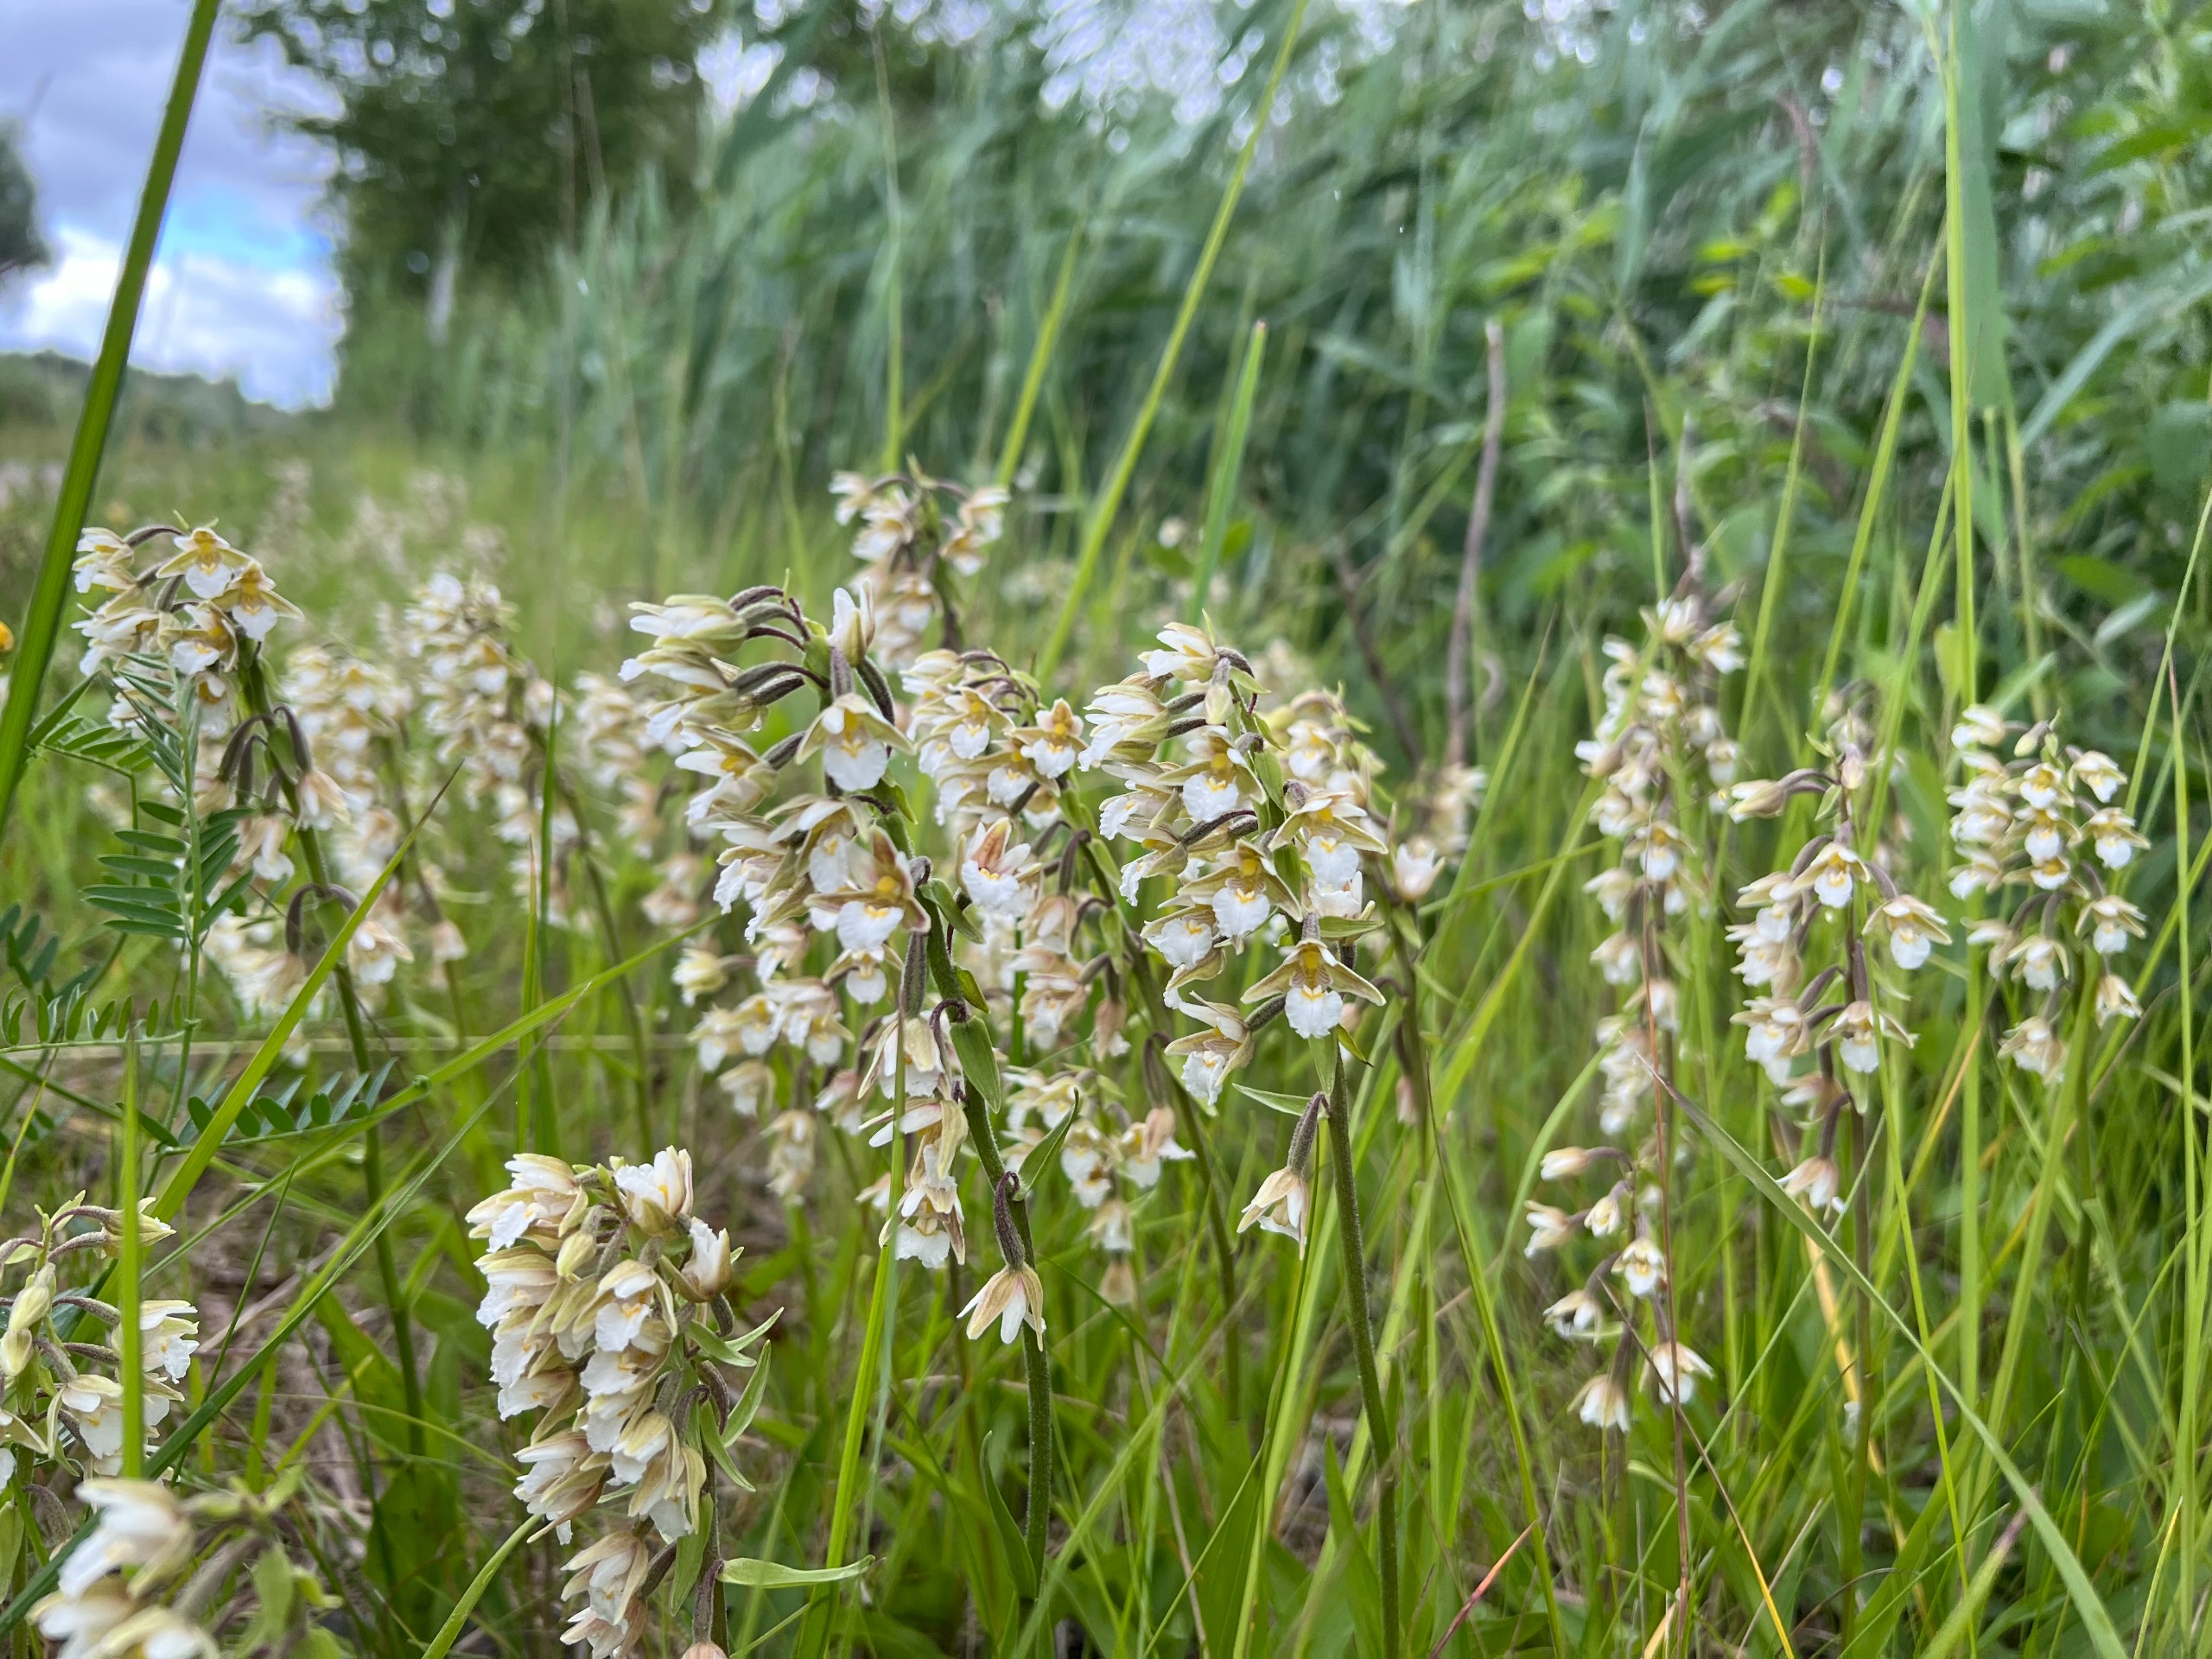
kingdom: Plantae
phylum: Tracheophyta
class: Liliopsida
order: Asparagales
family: Orchidaceae
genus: Epipactis
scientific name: Epipactis palustris
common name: Sump-hullæbe
